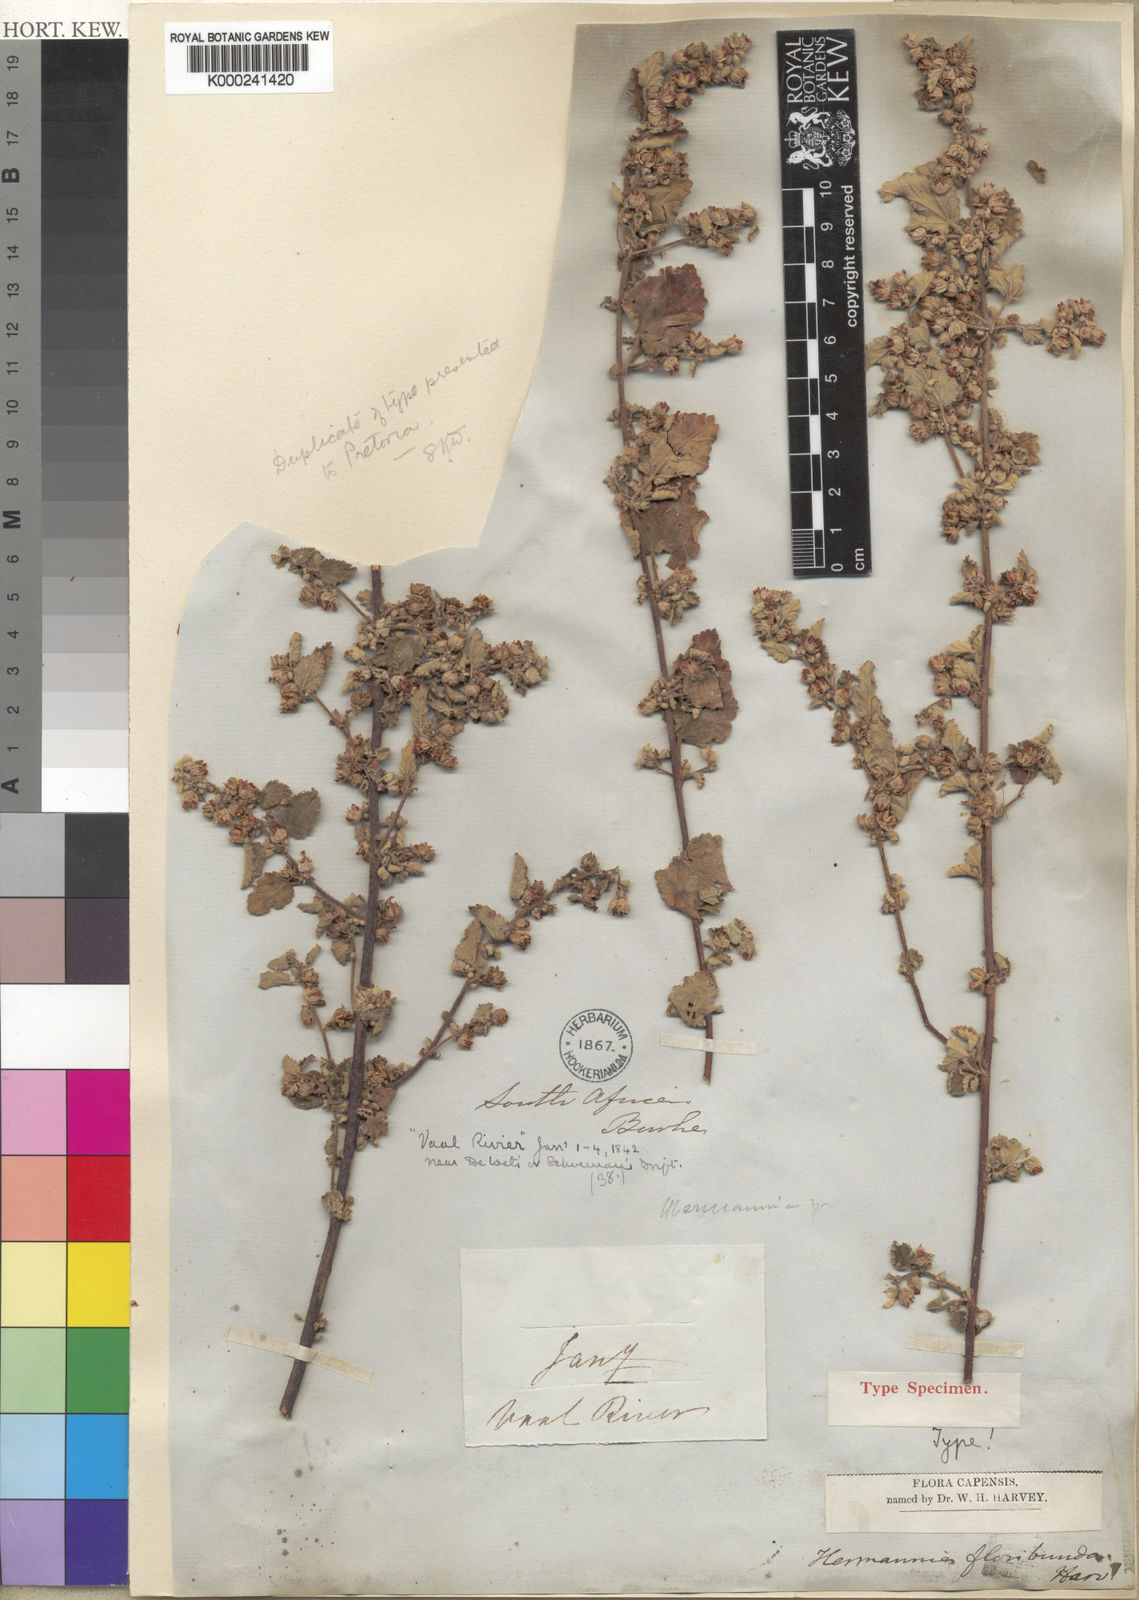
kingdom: Plantae
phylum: Tracheophyta
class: Magnoliopsida
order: Malvales
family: Malvaceae
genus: Hermannia
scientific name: Hermannia floribunda
